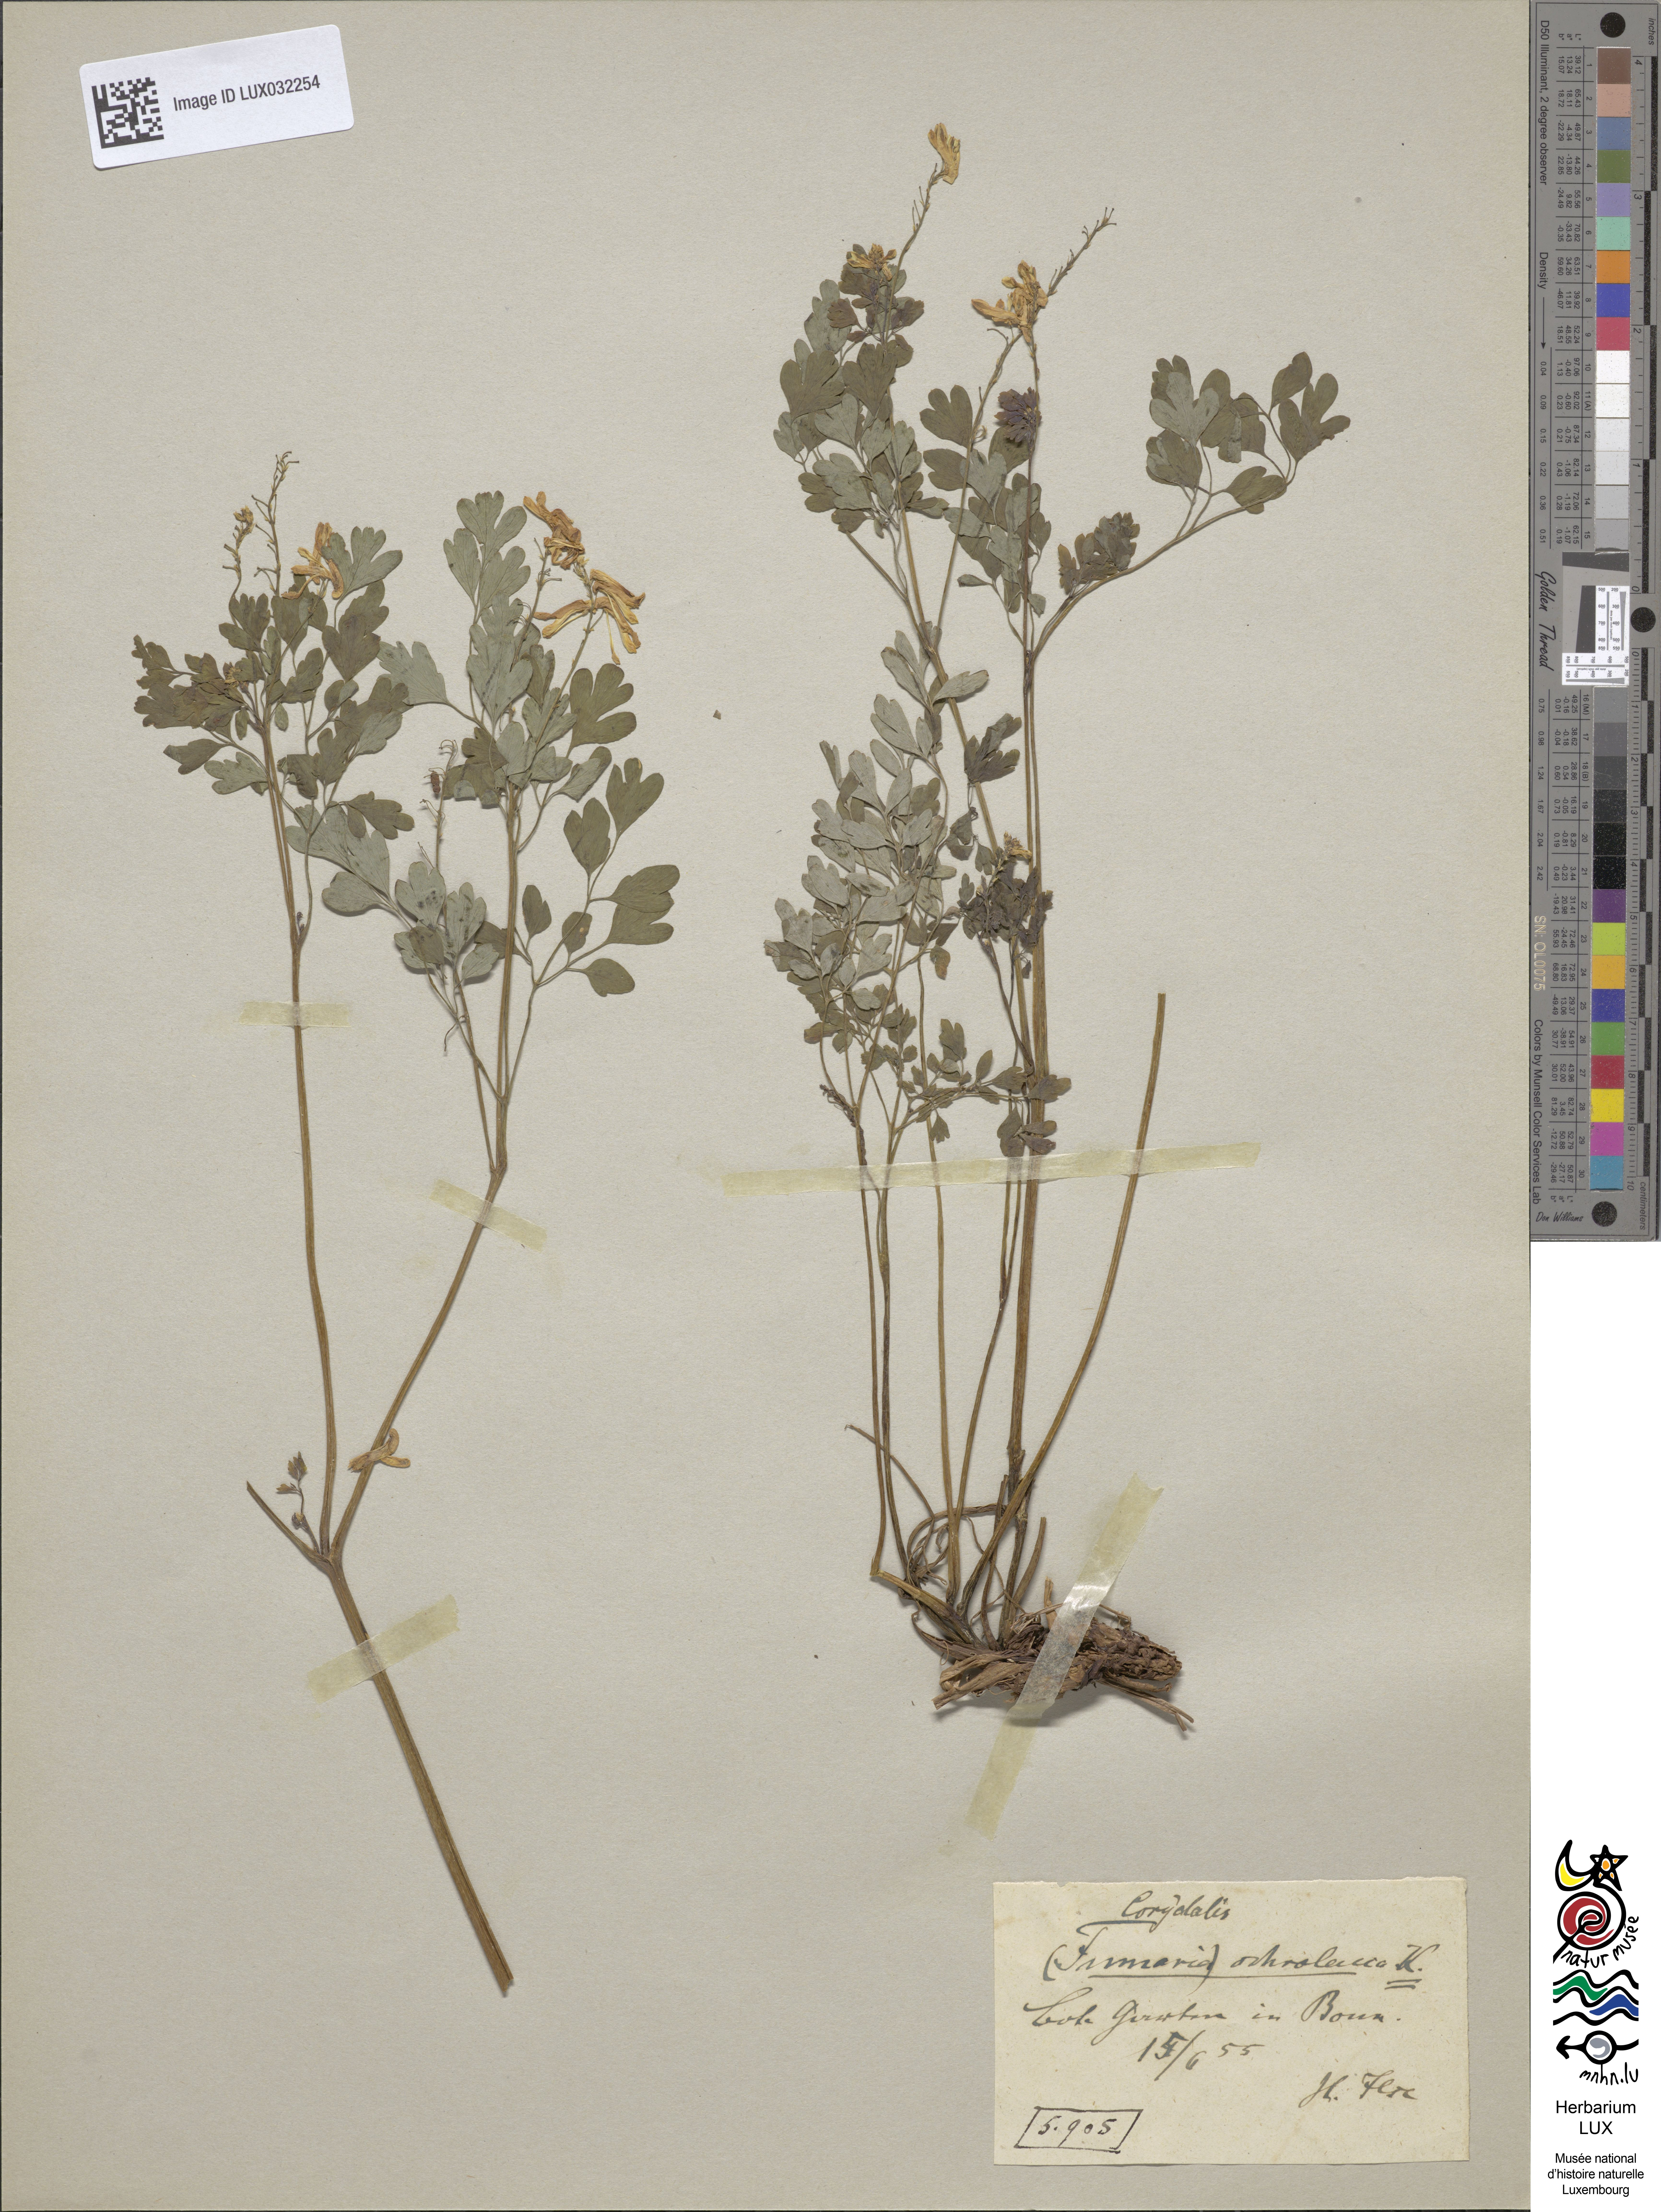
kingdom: Plantae
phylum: Tracheophyta
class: Magnoliopsida
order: Ranunculales
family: Papaveraceae
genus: Pseudofumaria
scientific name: Pseudofumaria alba
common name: Pale corydalis
